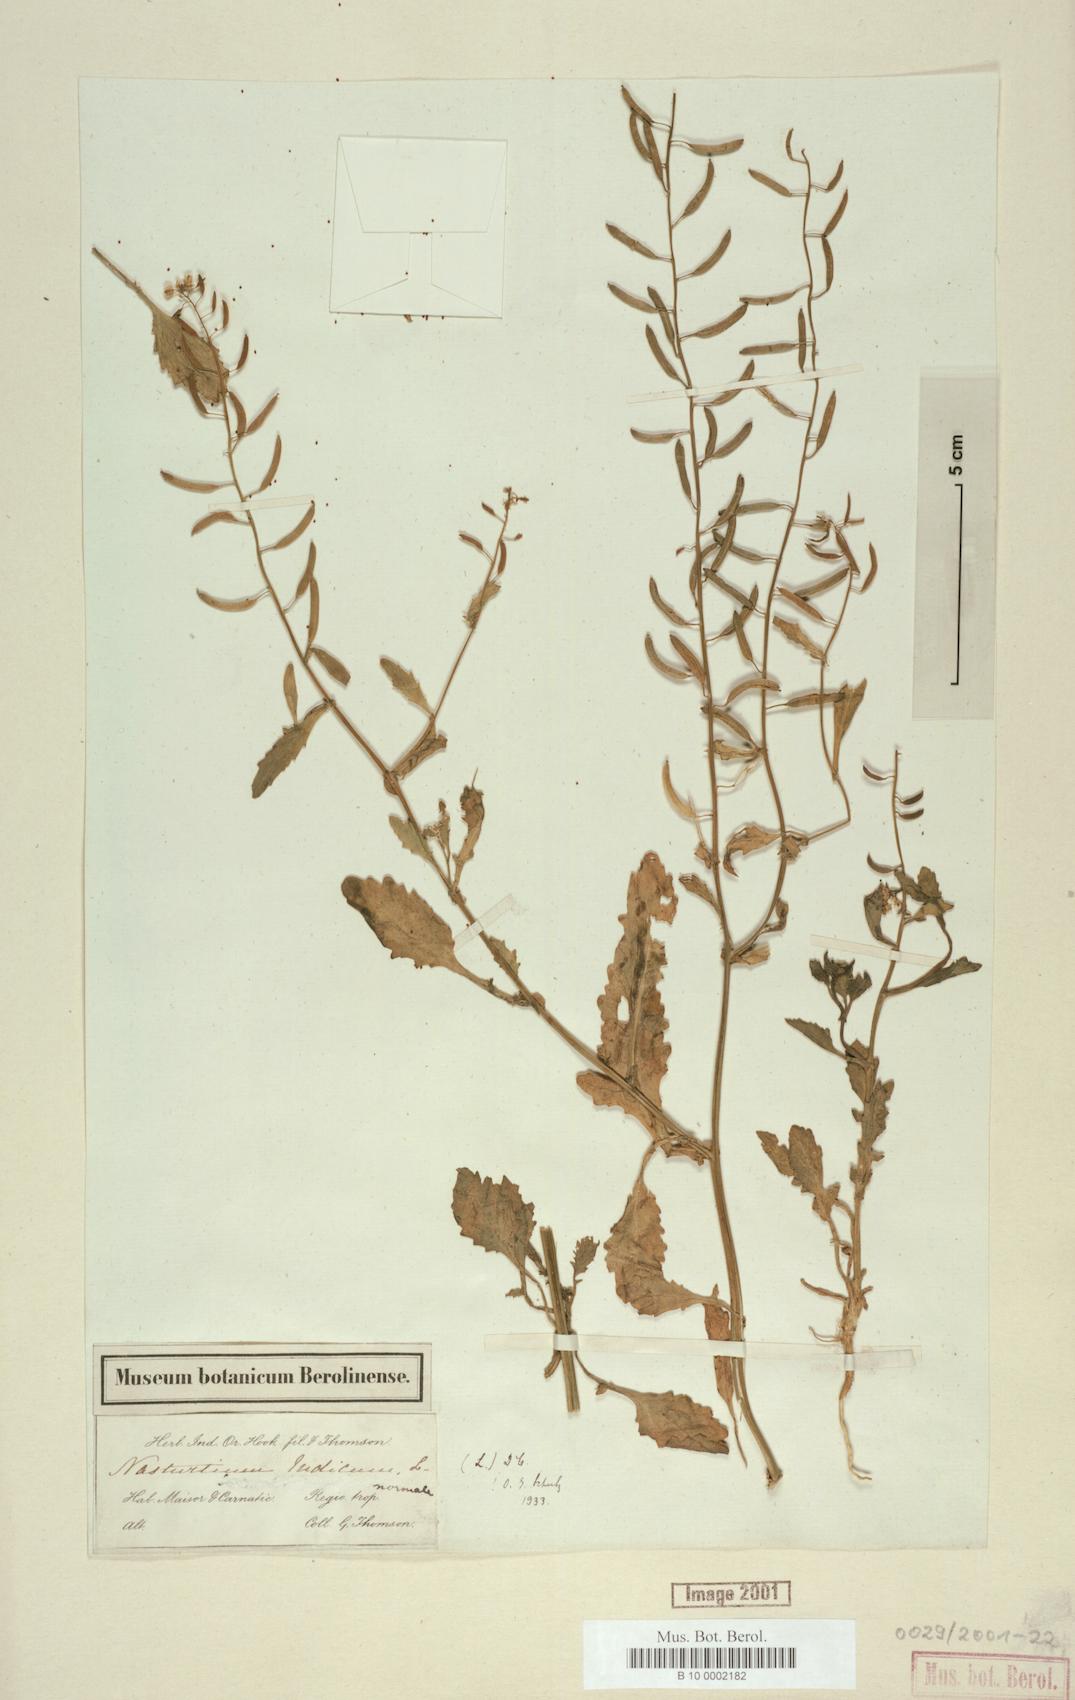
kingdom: Plantae
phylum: Tracheophyta
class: Magnoliopsida
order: Brassicales
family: Brassicaceae
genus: Rorippa
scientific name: Rorippa indica
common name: Variableleaf yellowcress
